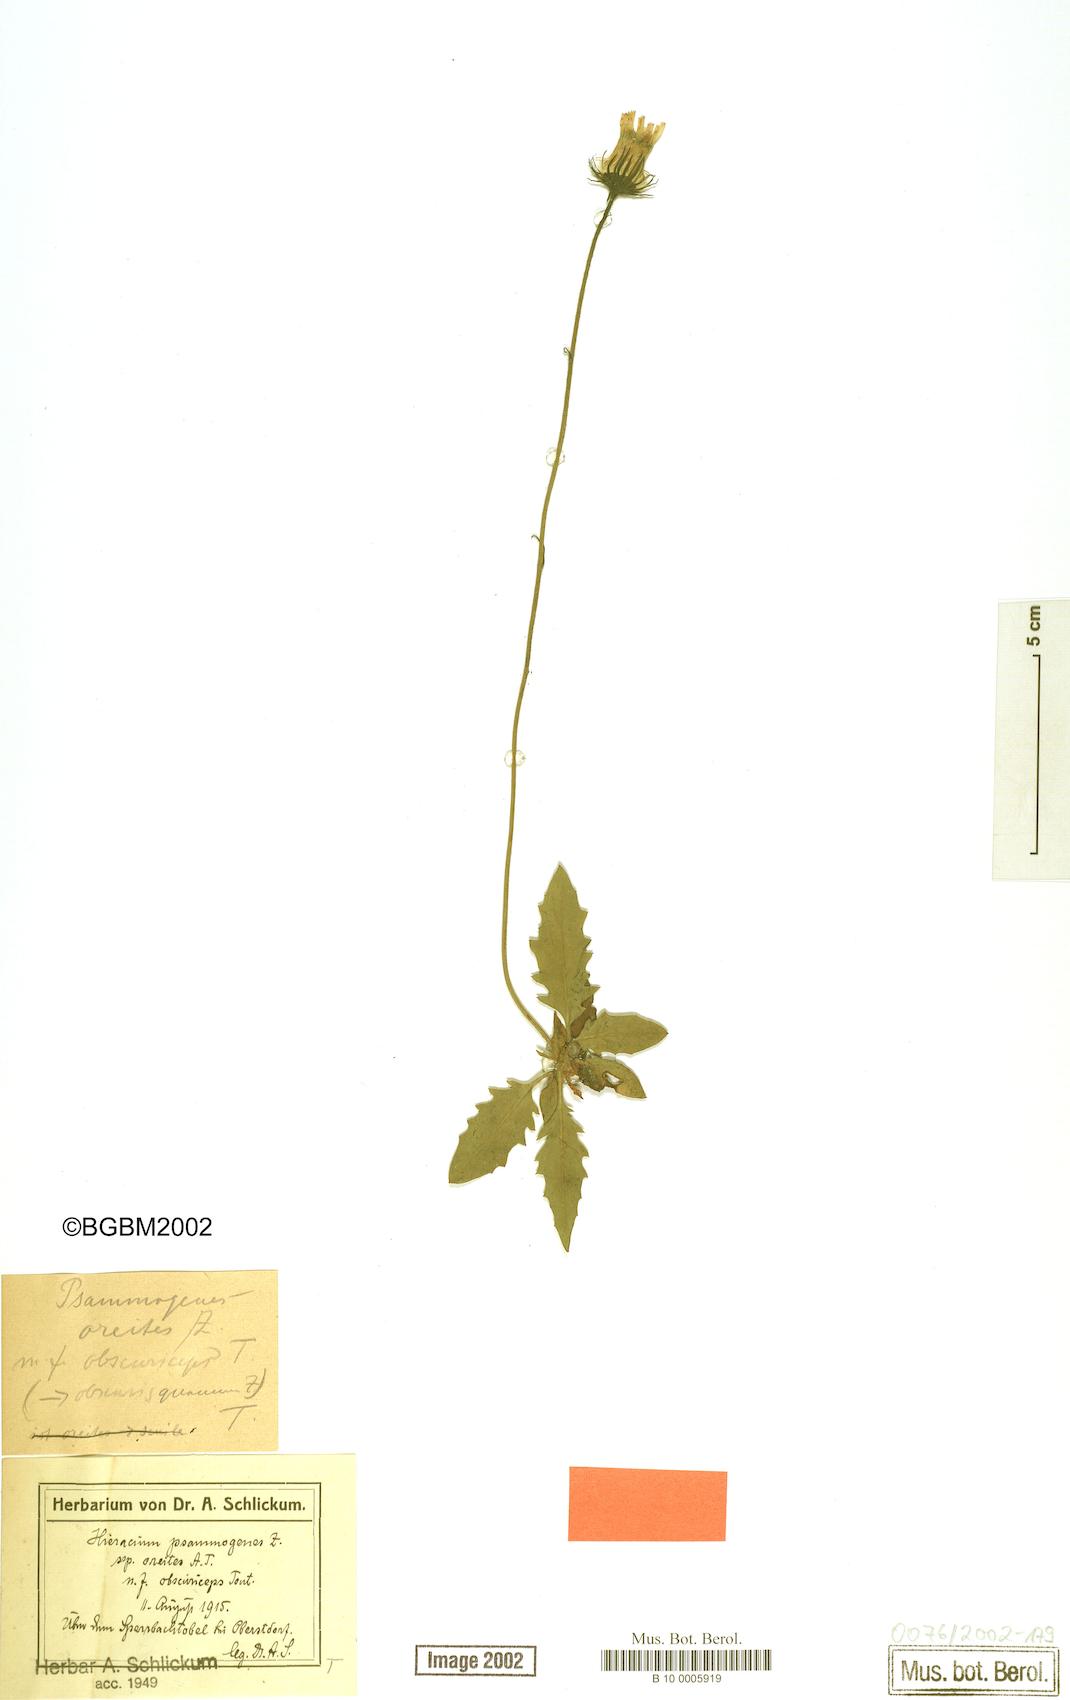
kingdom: Plantae
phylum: Tracheophyta
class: Magnoliopsida
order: Asterales
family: Asteraceae
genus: Hieracium
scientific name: Hieracium psammogenes
